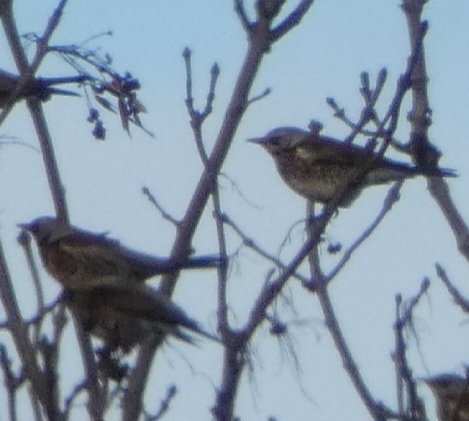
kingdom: Animalia
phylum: Chordata
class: Aves
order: Passeriformes
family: Turdidae
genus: Turdus
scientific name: Turdus pilaris
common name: Sjagger
